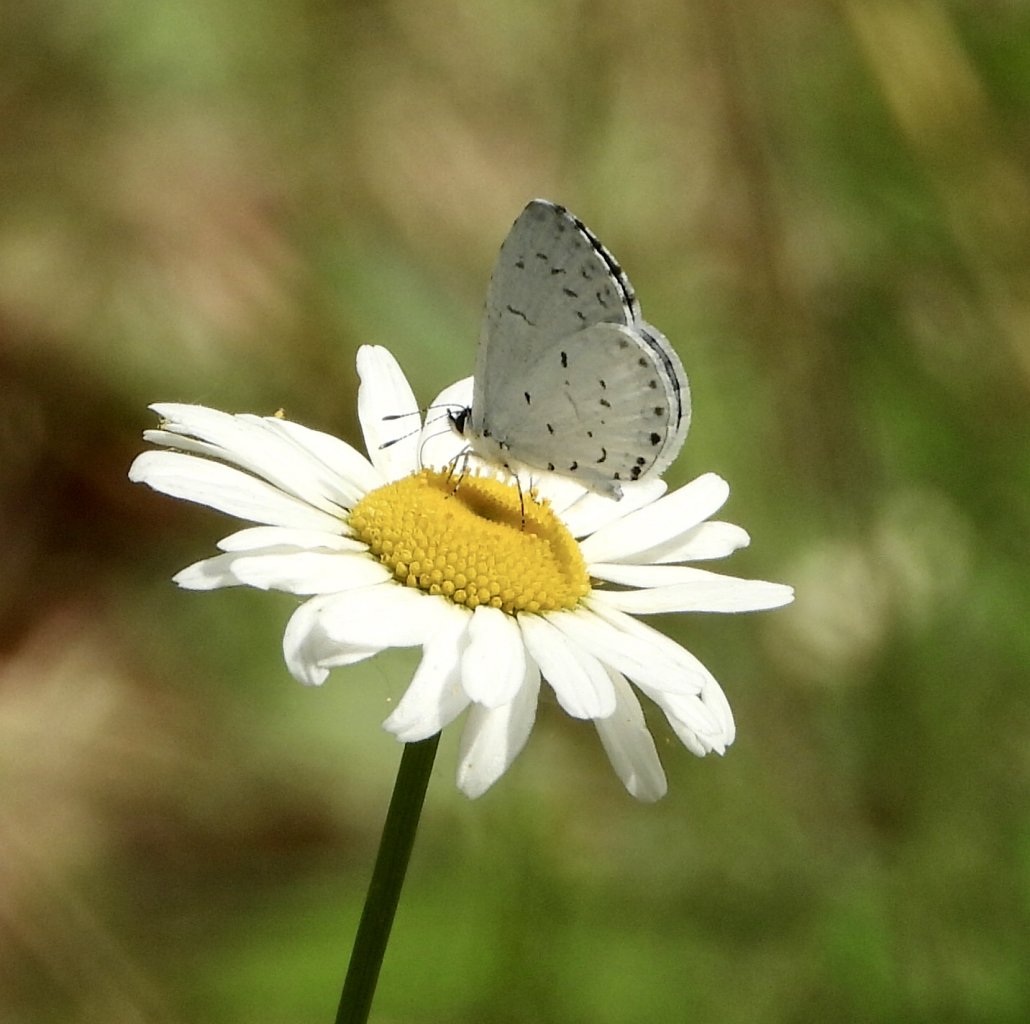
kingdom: Animalia
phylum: Arthropoda
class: Insecta
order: Lepidoptera
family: Lycaenidae
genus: Cyaniris
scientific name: Cyaniris neglecta
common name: Summer Azure
